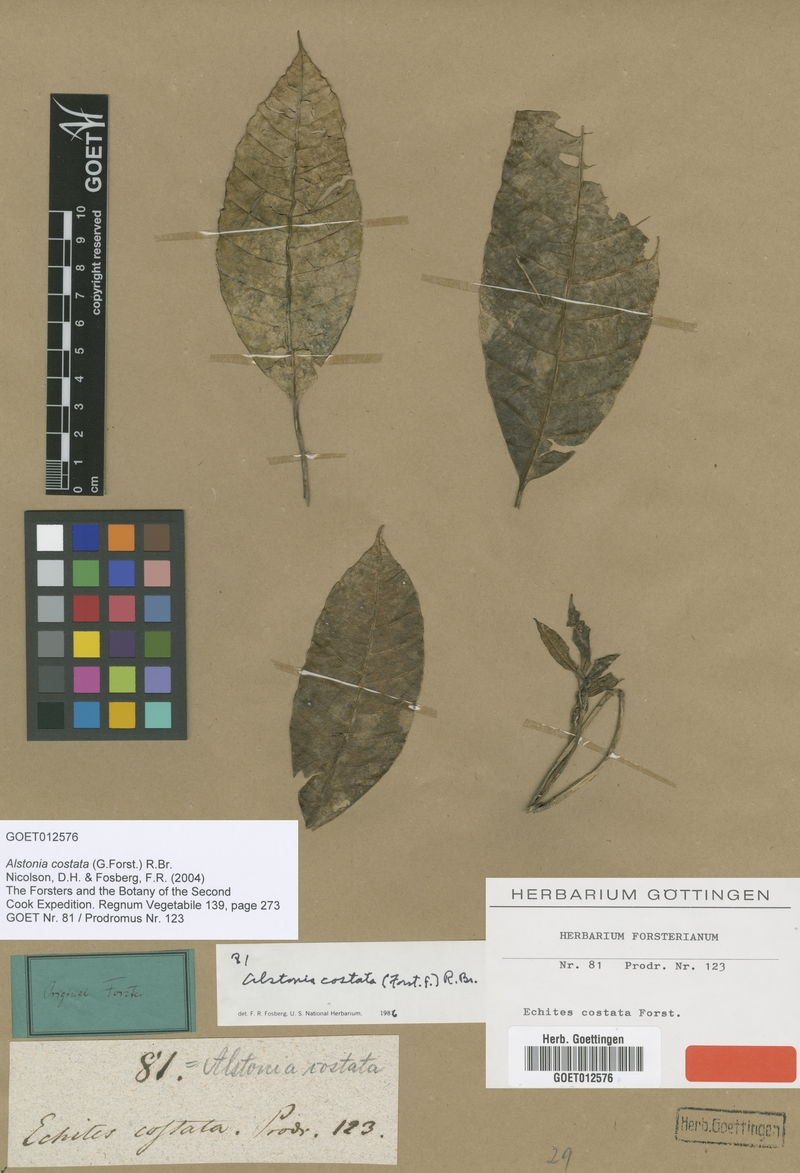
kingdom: Plantae
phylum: Tracheophyta
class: Magnoliopsida
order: Gentianales
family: Apocynaceae
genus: Alstonia
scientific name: Alstonia costata
